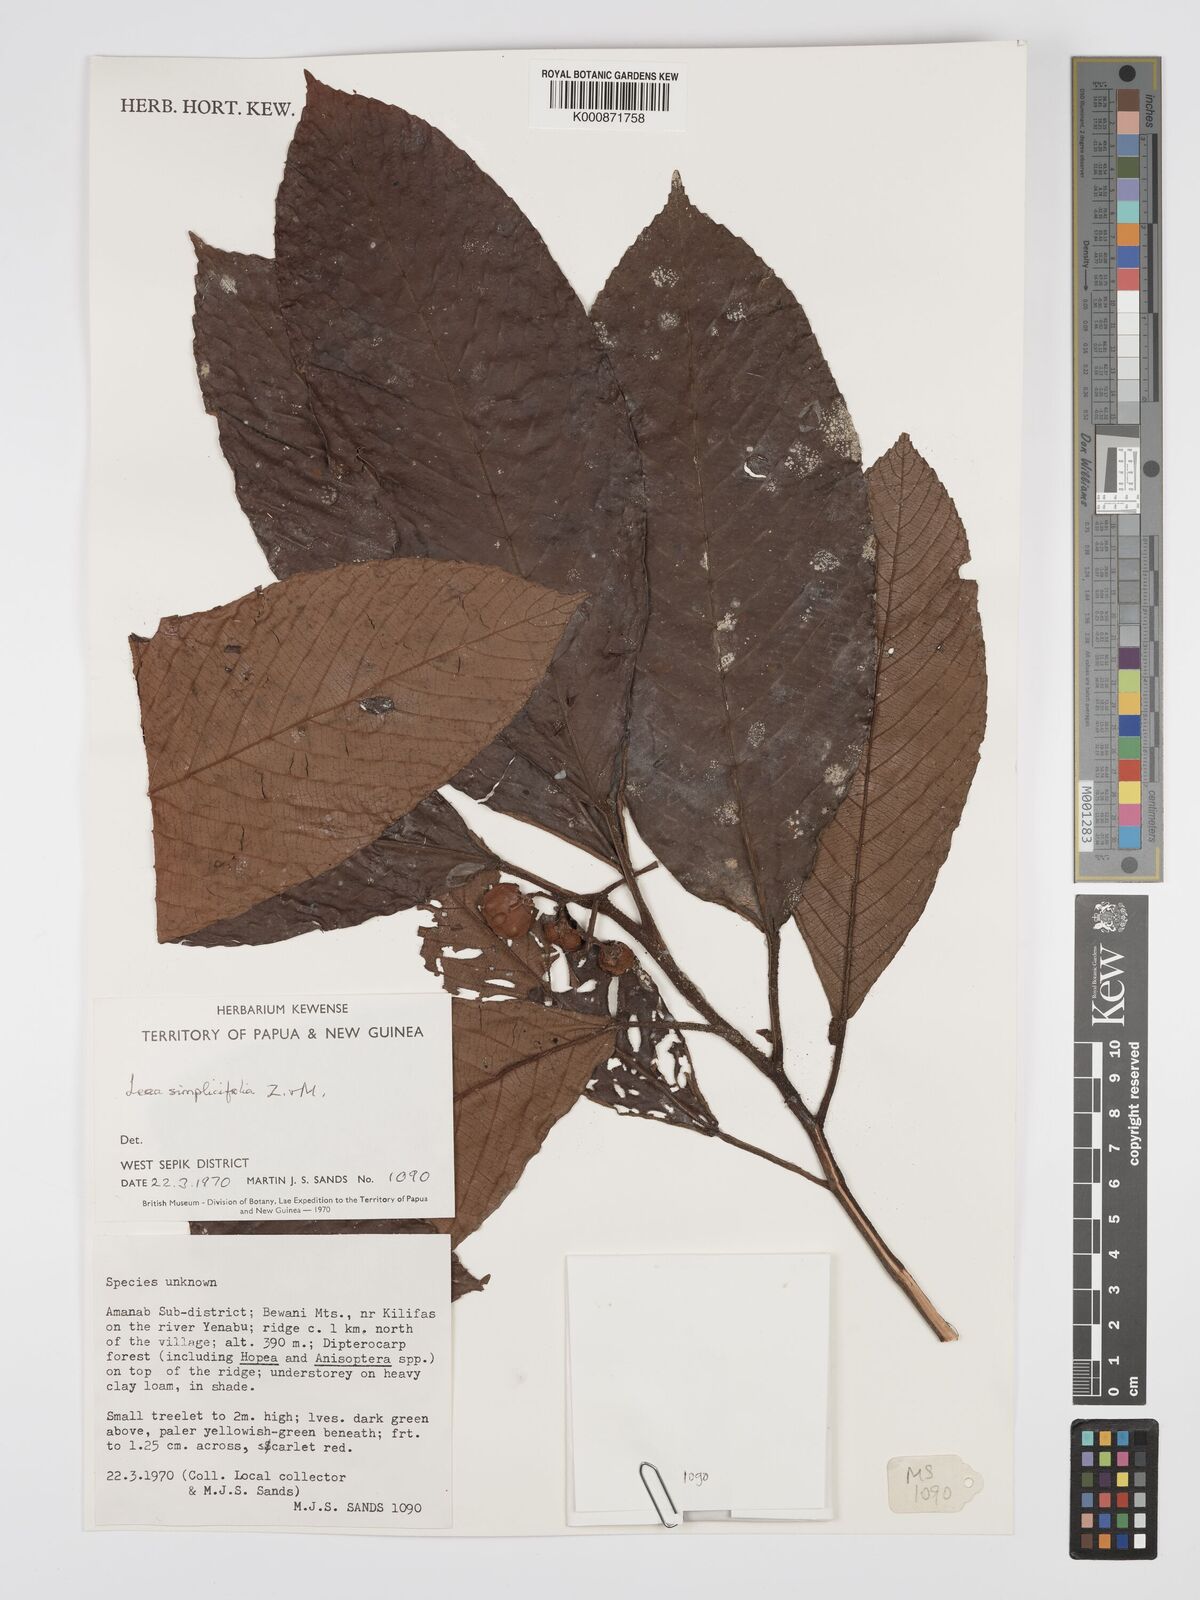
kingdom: Plantae
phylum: Tracheophyta
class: Magnoliopsida
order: Vitales
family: Vitaceae
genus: Leea
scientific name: Leea
